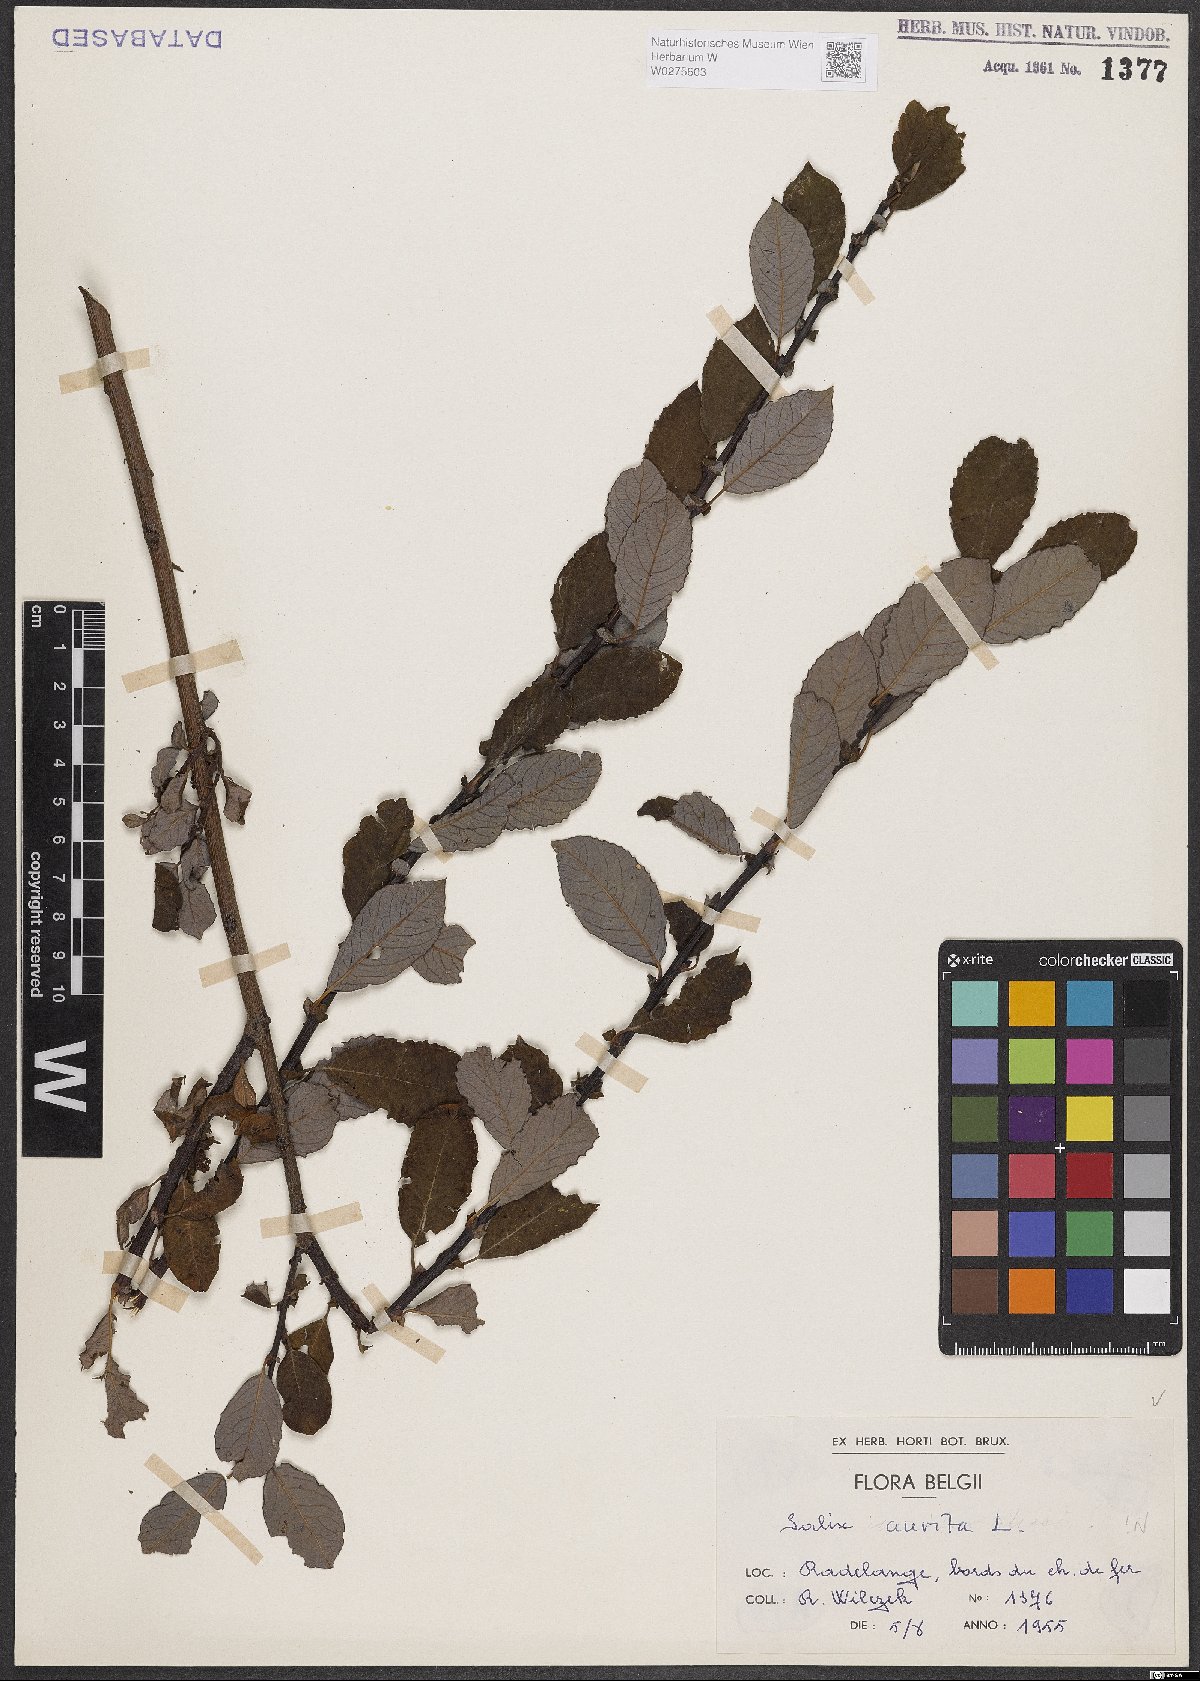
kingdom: Plantae
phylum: Tracheophyta
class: Magnoliopsida
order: Malpighiales
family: Salicaceae
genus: Salix
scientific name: Salix aurita
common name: Eared willow
